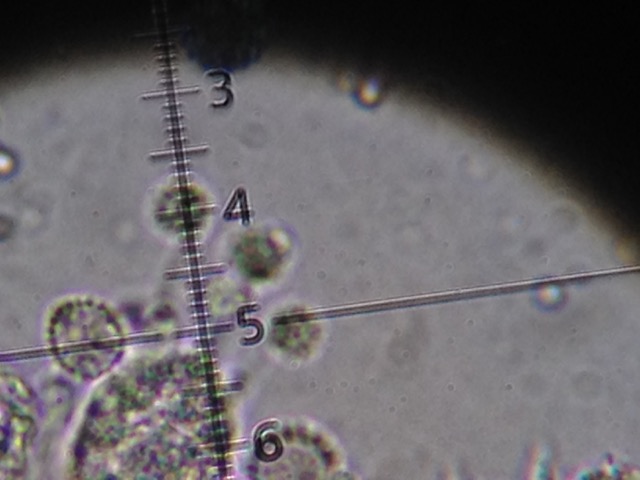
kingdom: Fungi
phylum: Basidiomycota
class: Agaricomycetes
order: Agaricales
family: Hydnangiaceae
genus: Laccaria
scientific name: Laccaria laccata
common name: rød ametysthat
